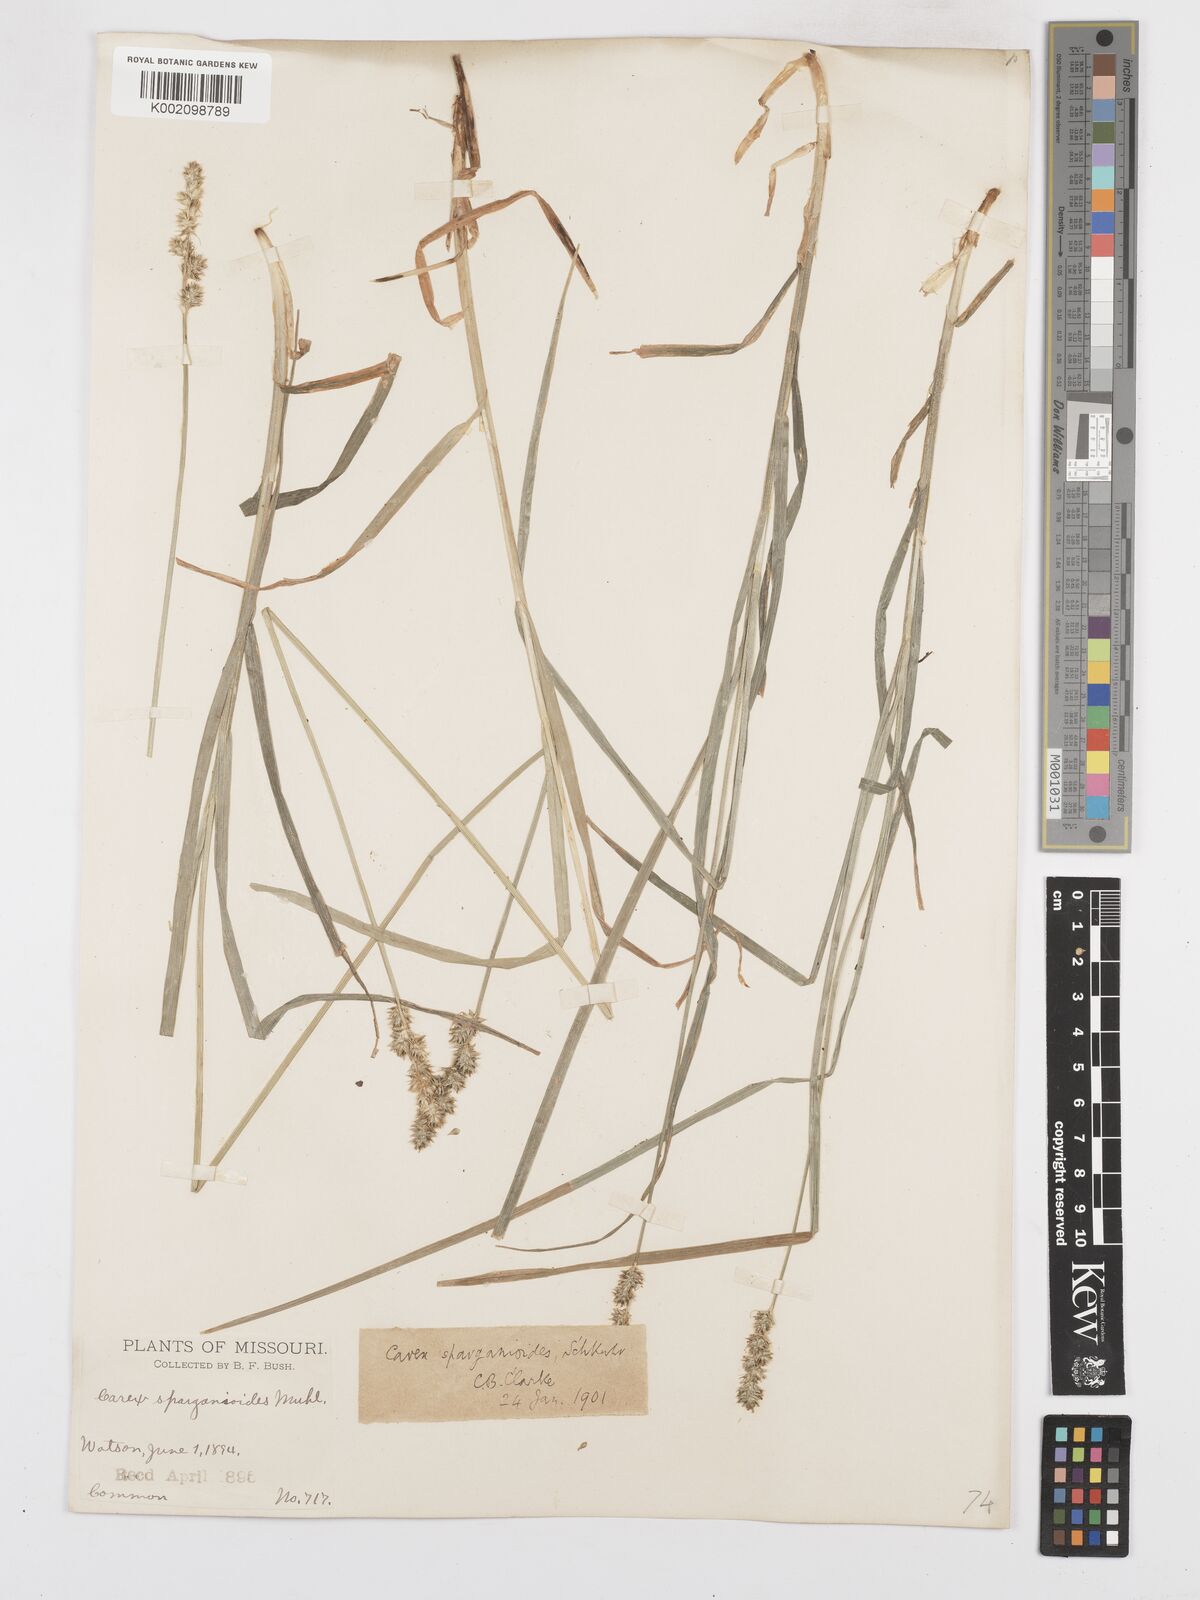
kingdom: Plantae
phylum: Tracheophyta
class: Liliopsida
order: Poales
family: Cyperaceae
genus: Carex
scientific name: Carex sparganioides
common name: Burreed sedge
